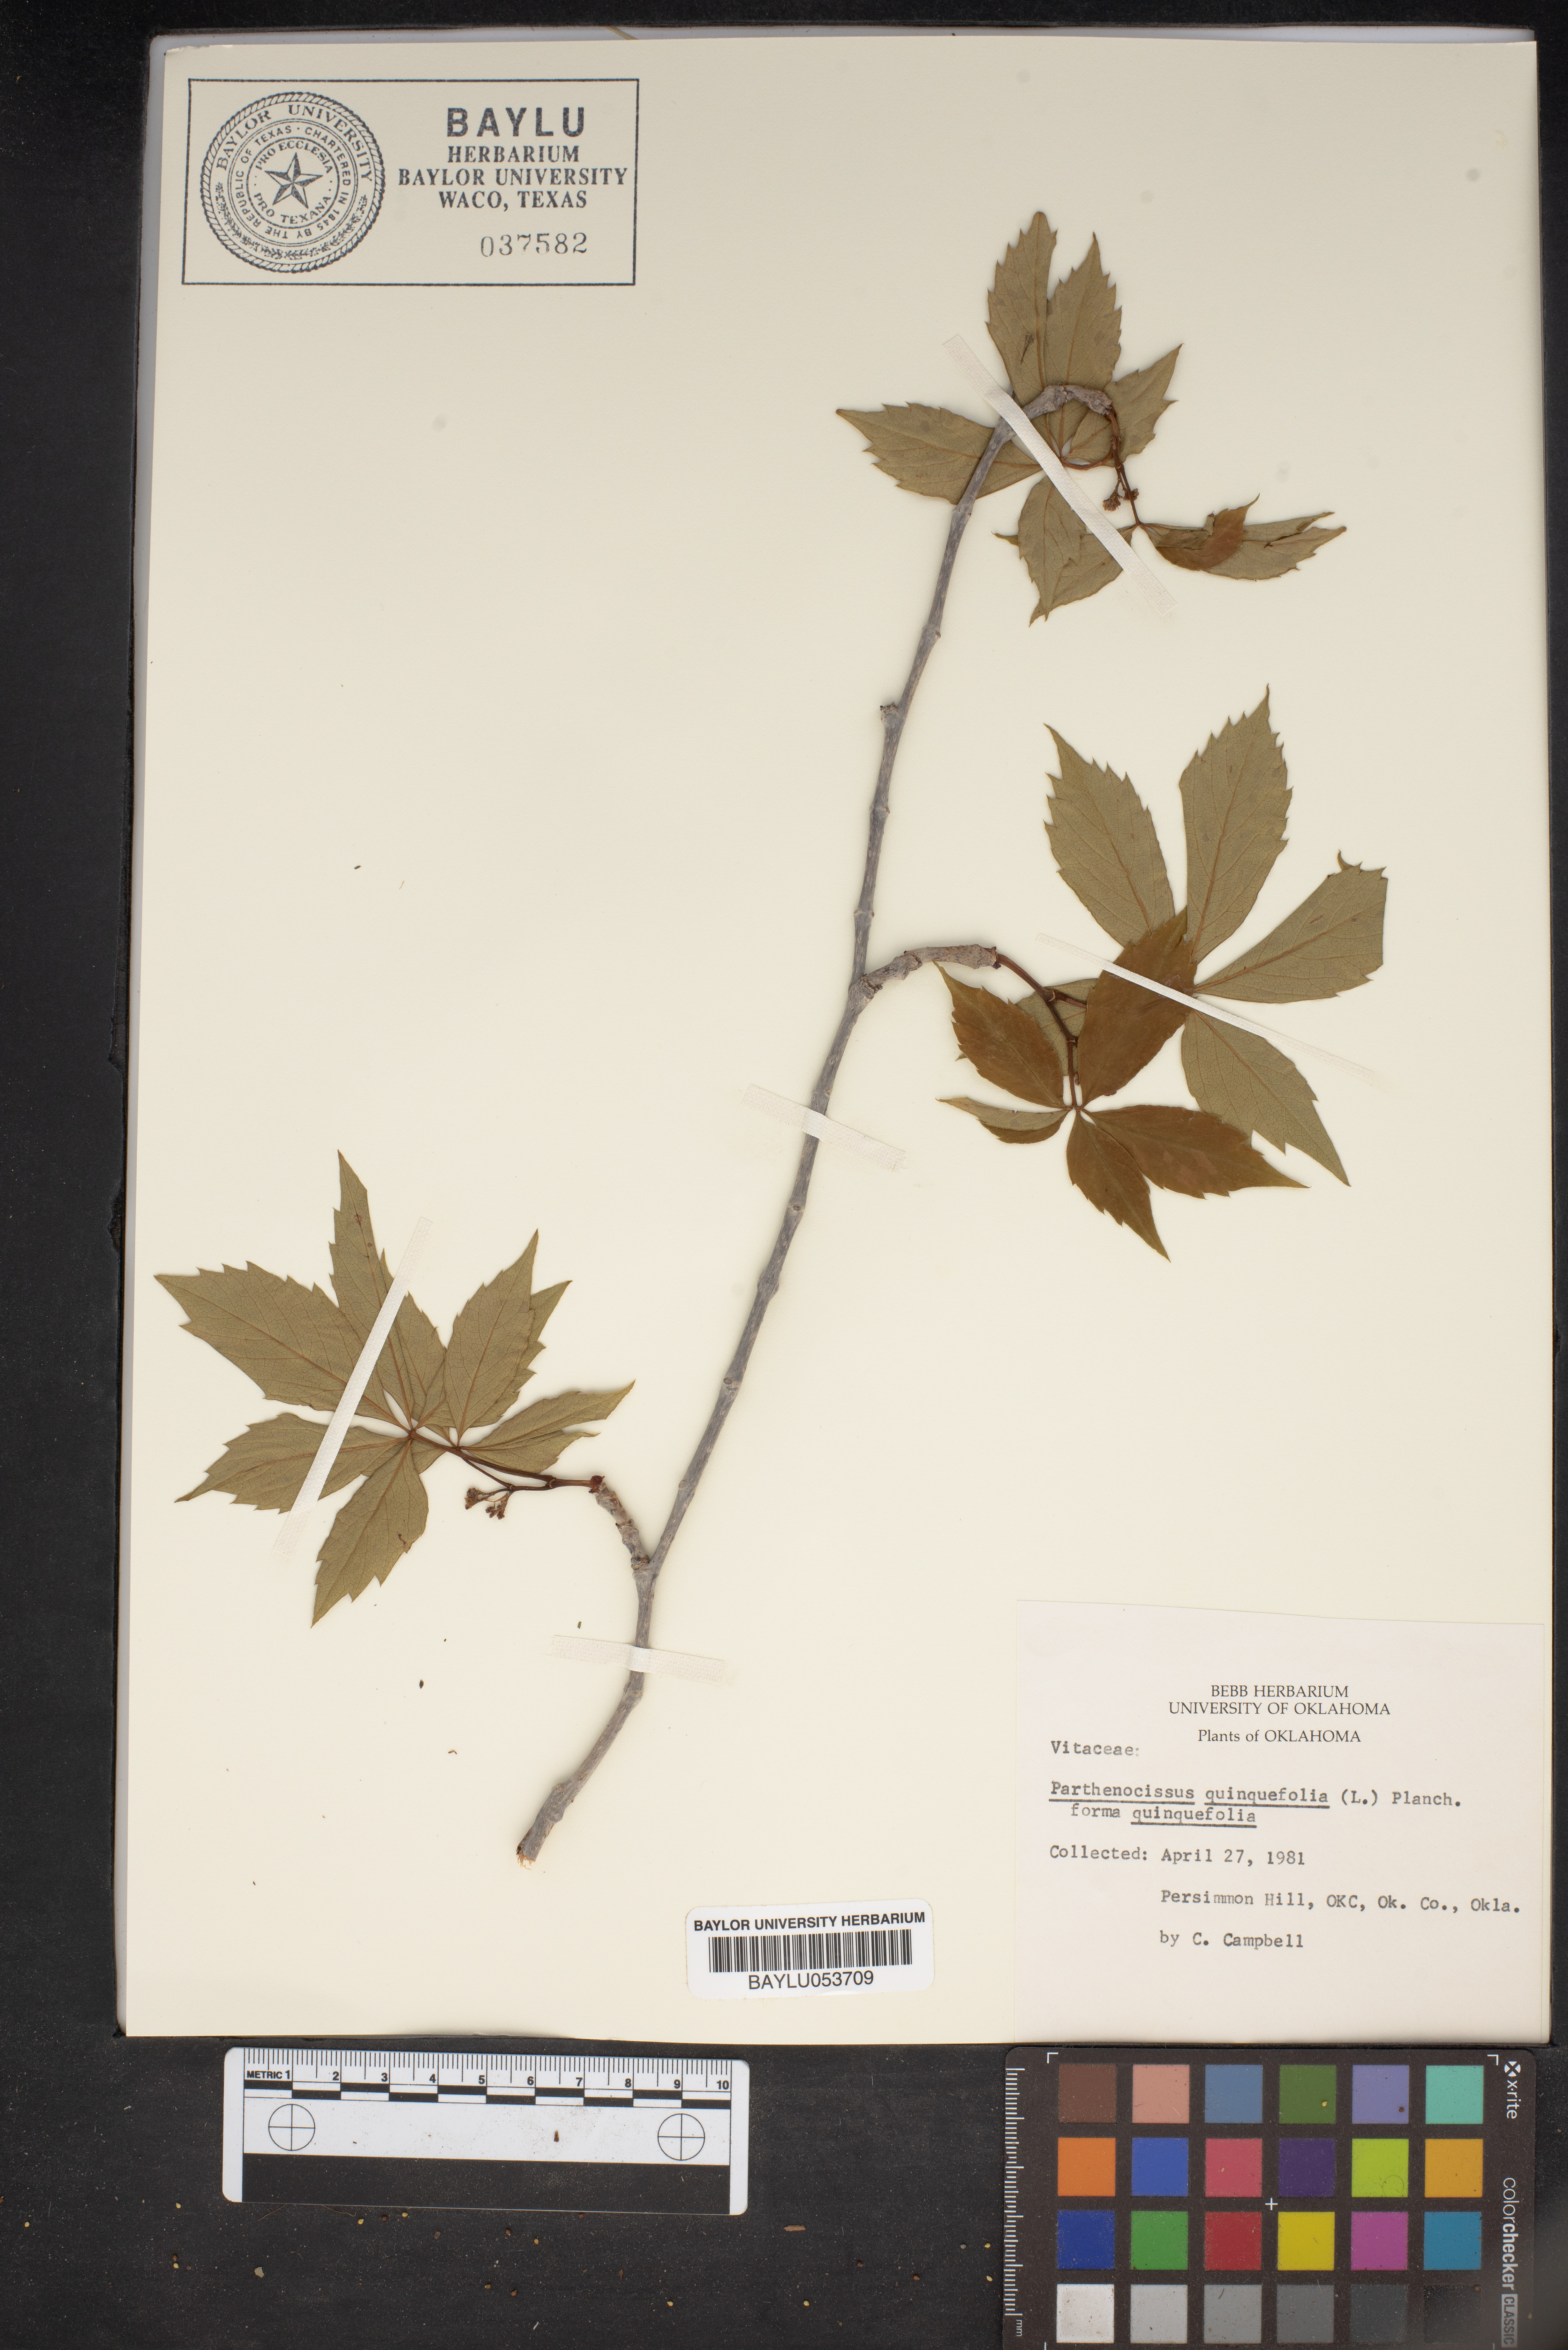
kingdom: Plantae
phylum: Tracheophyta
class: Magnoliopsida
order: Vitales
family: Vitaceae
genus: Parthenocissus
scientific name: Parthenocissus quinquefolia
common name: Virginia-creeper
